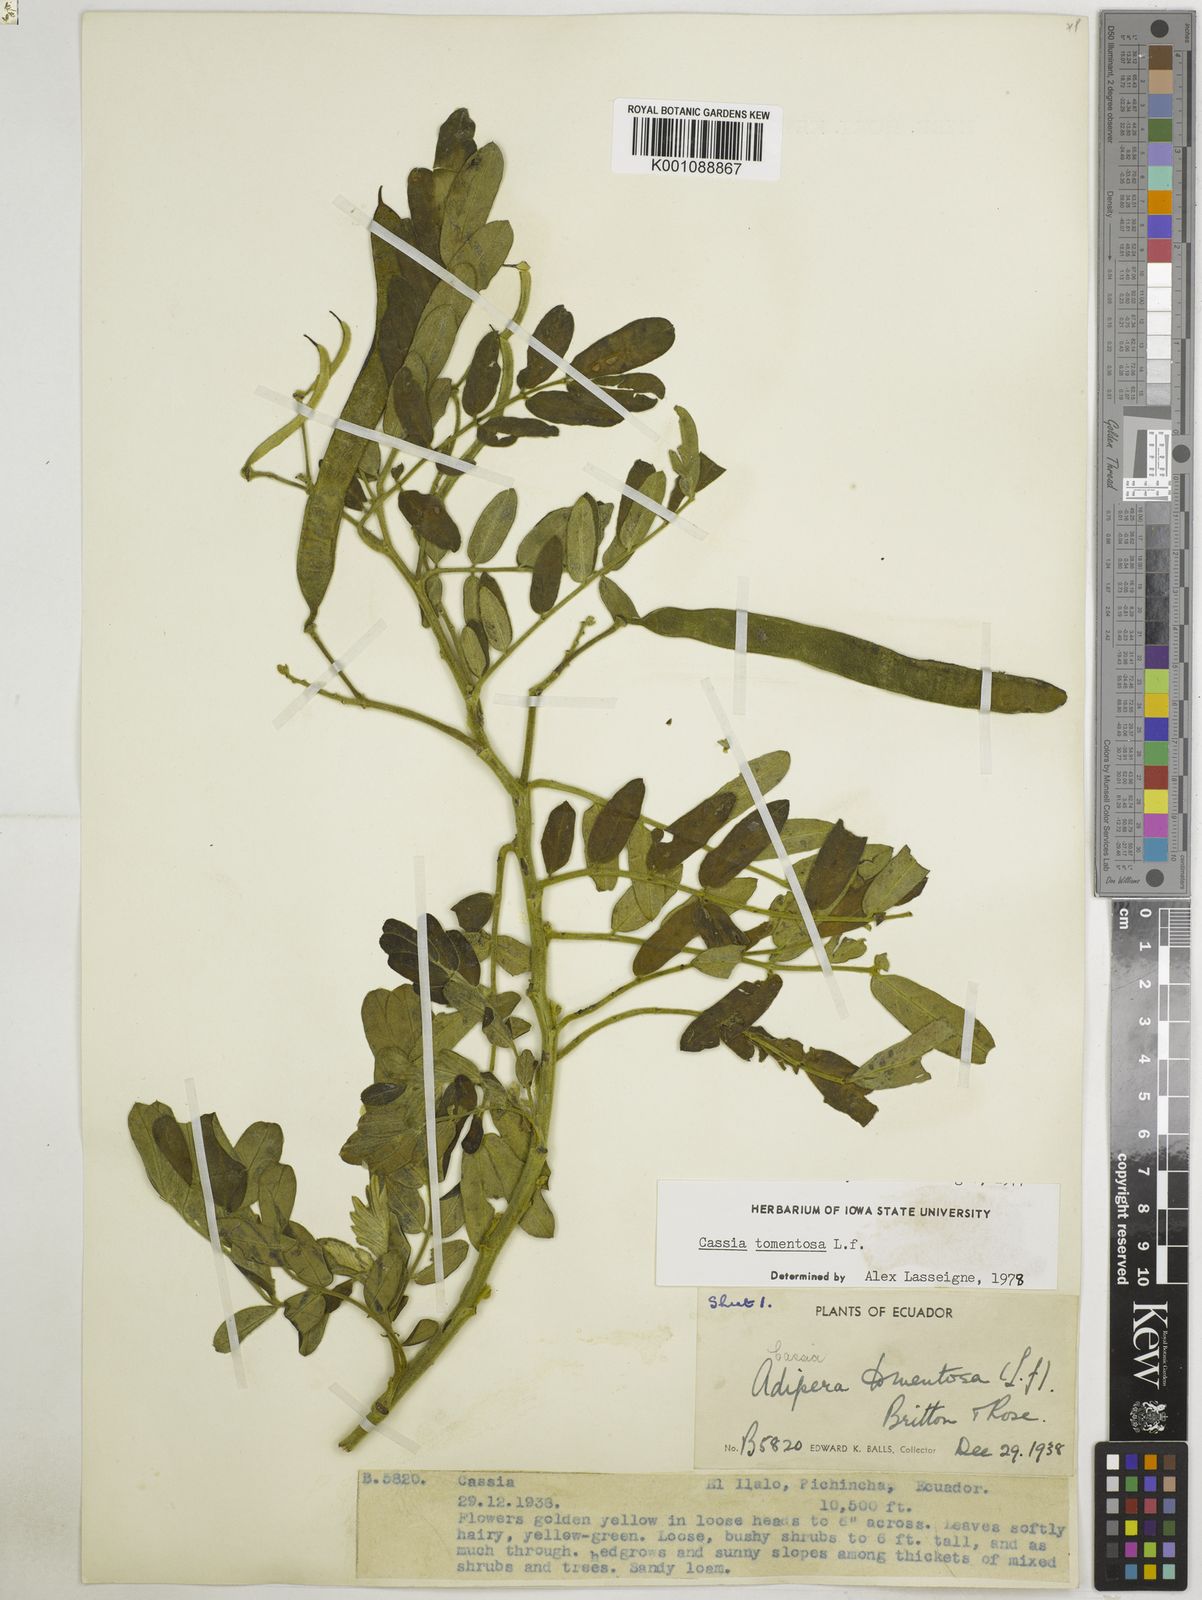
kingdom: Plantae
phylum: Tracheophyta
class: Magnoliopsida
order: Fabales
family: Fabaceae
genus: Senna
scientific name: Senna multiglandulosa
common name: Glandular senna
